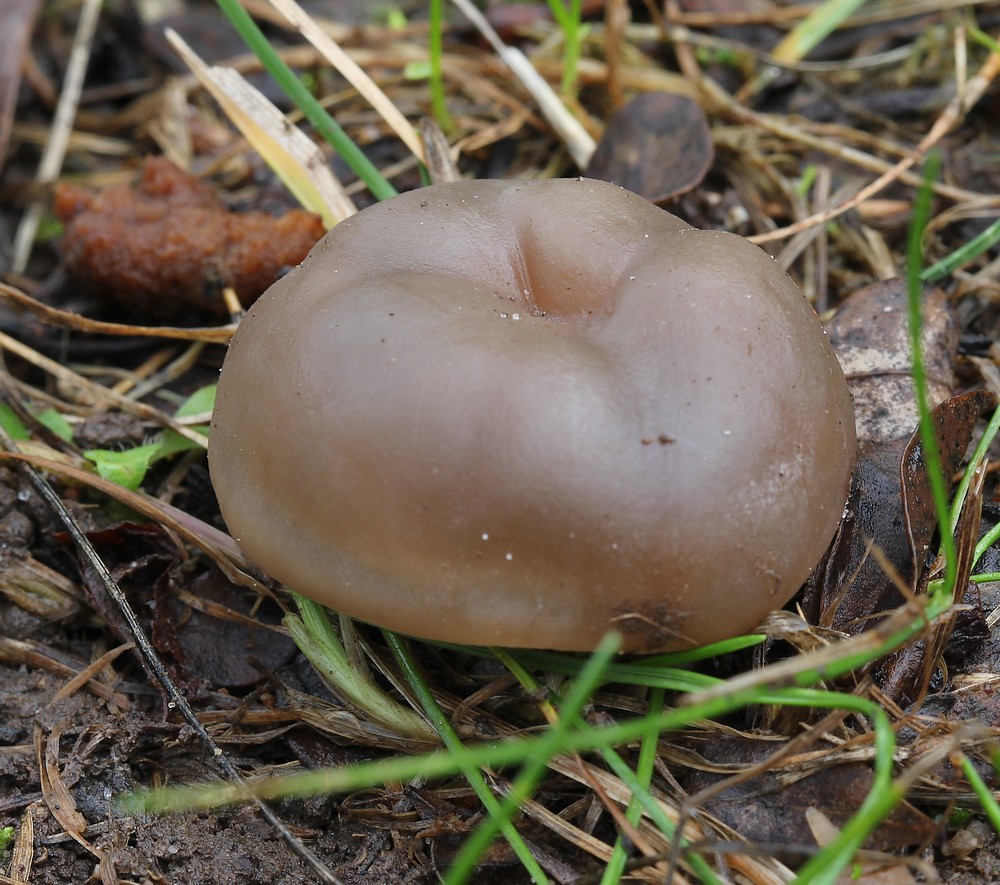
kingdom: Fungi
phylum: Basidiomycota
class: Agaricomycetes
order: Agaricales
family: Tricholomataceae
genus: Lepista
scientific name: Lepista personata
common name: bleg hekseringshat
